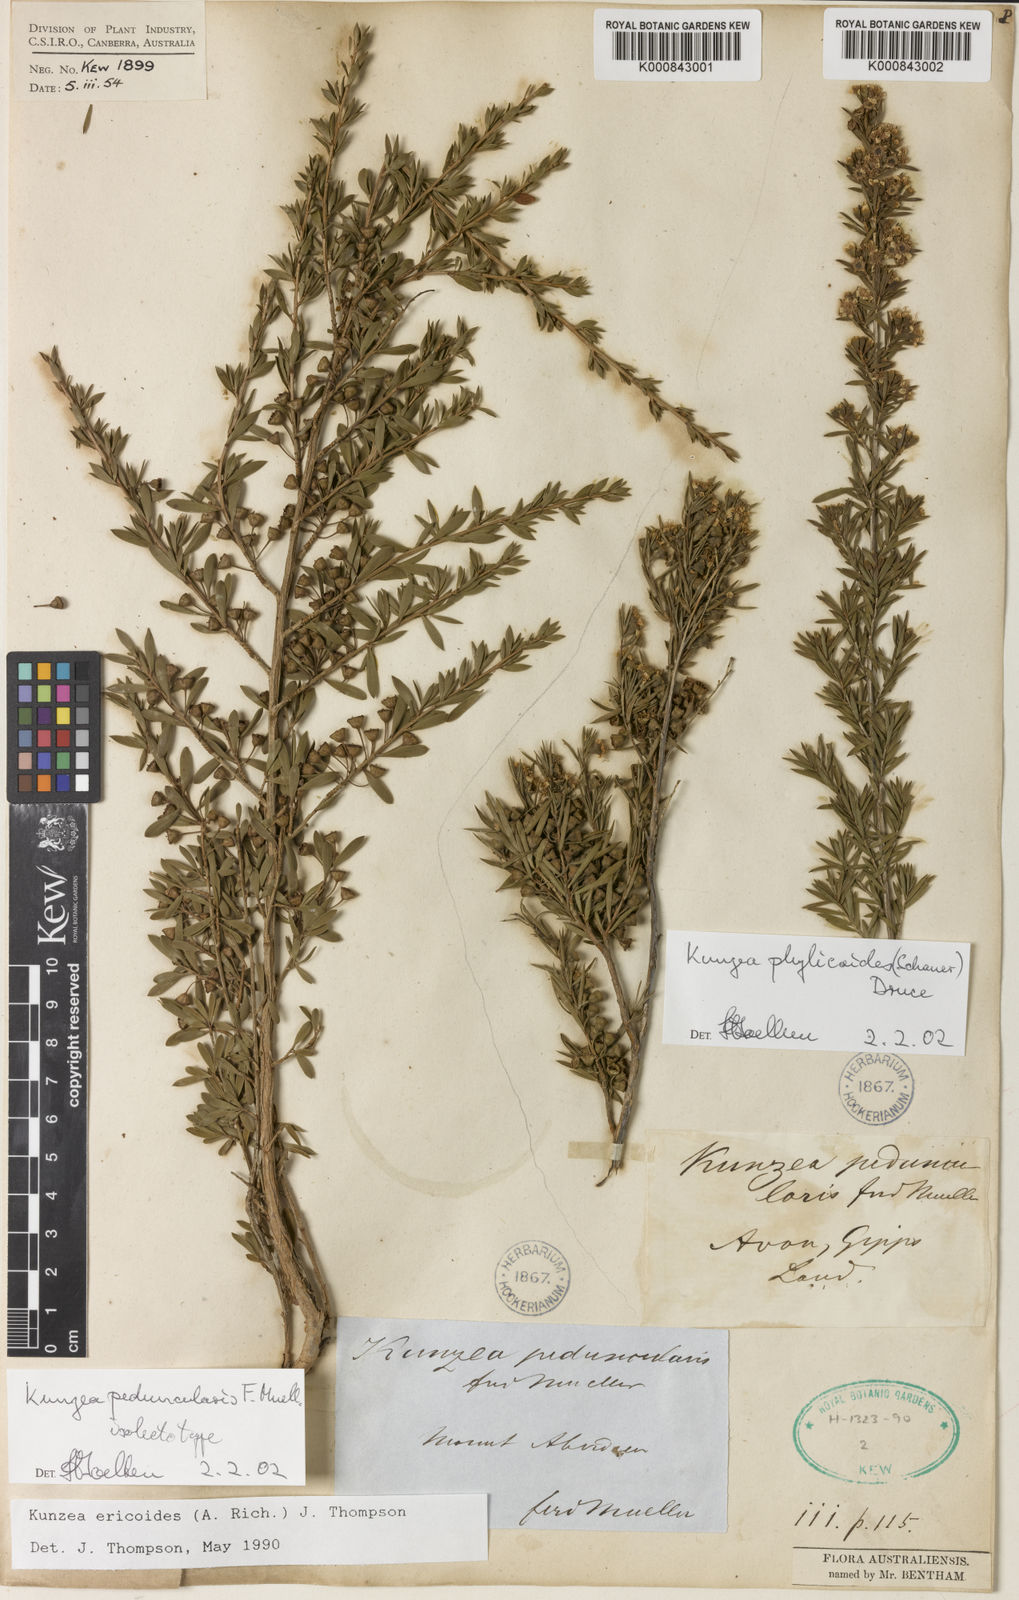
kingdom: Plantae
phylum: Tracheophyta
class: Magnoliopsida
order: Myrtales
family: Myrtaceae
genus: Kunzea
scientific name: Kunzea ericoides
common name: Burgan
